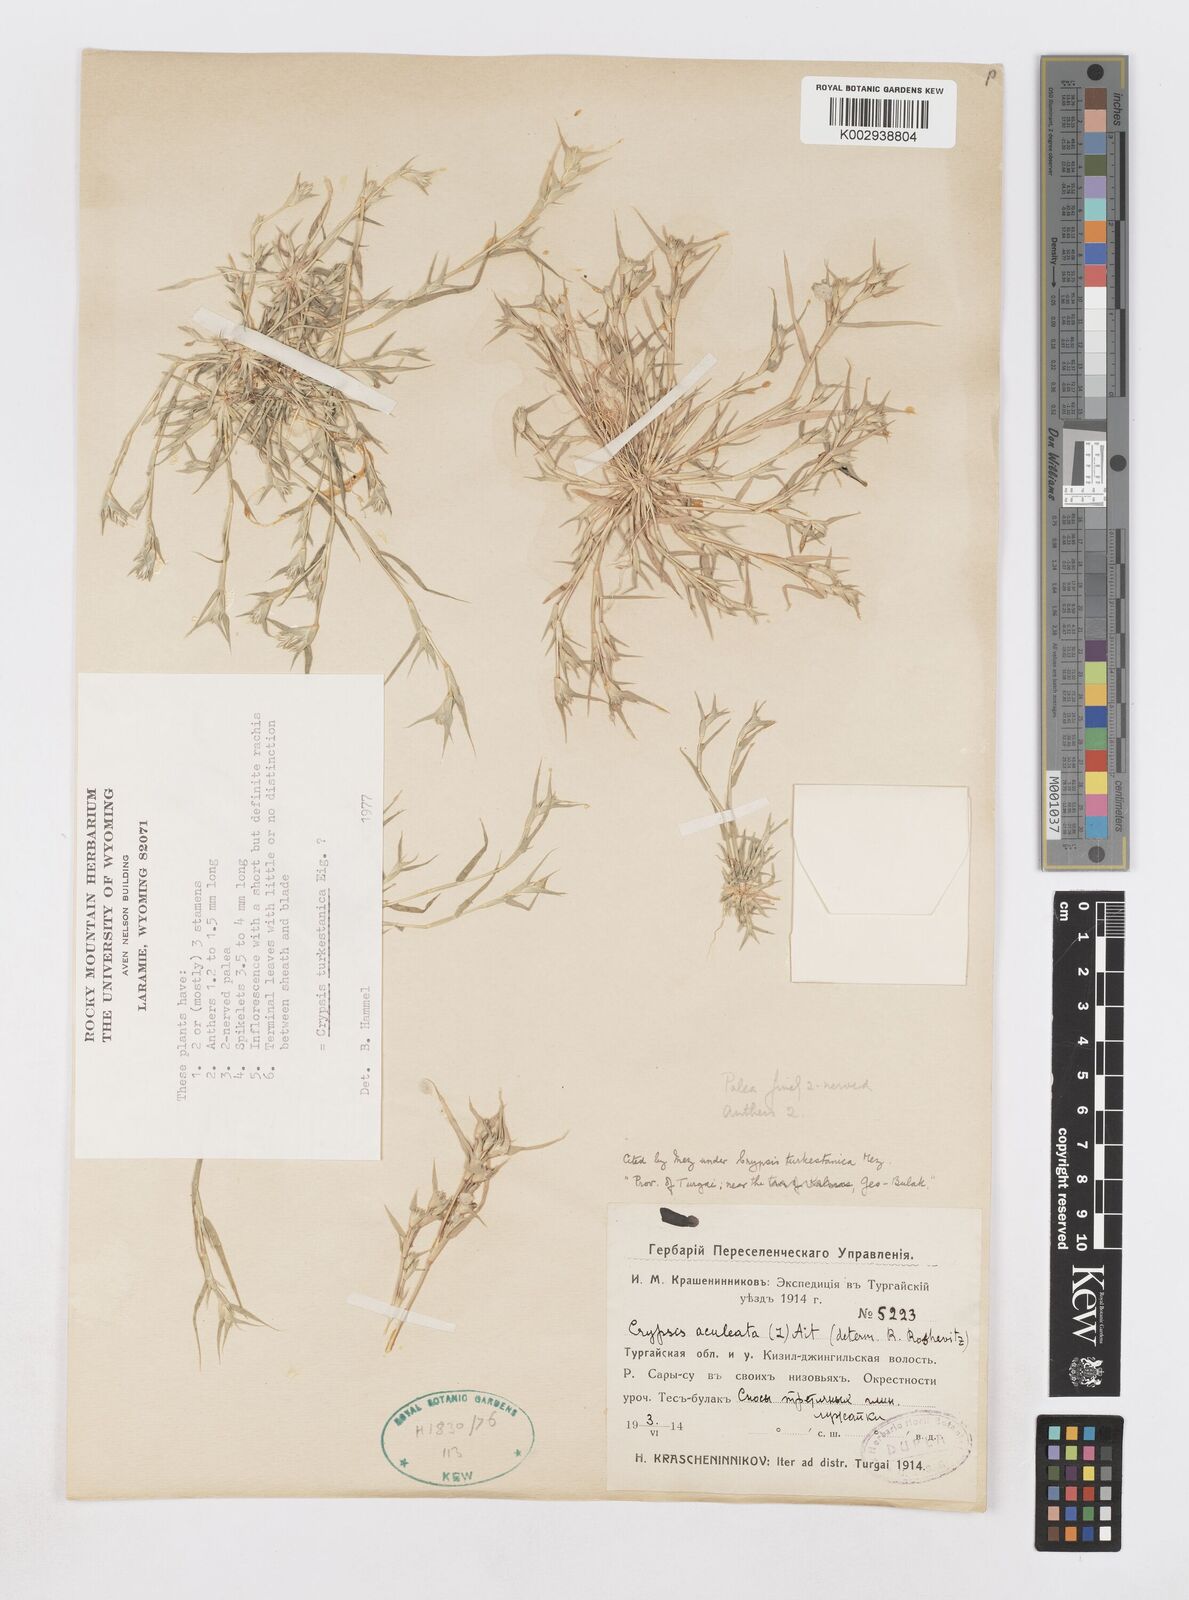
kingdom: Animalia
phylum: Arthropoda
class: Insecta
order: Coleoptera
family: Tenebrionidae
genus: Crypsis
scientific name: Crypsis
